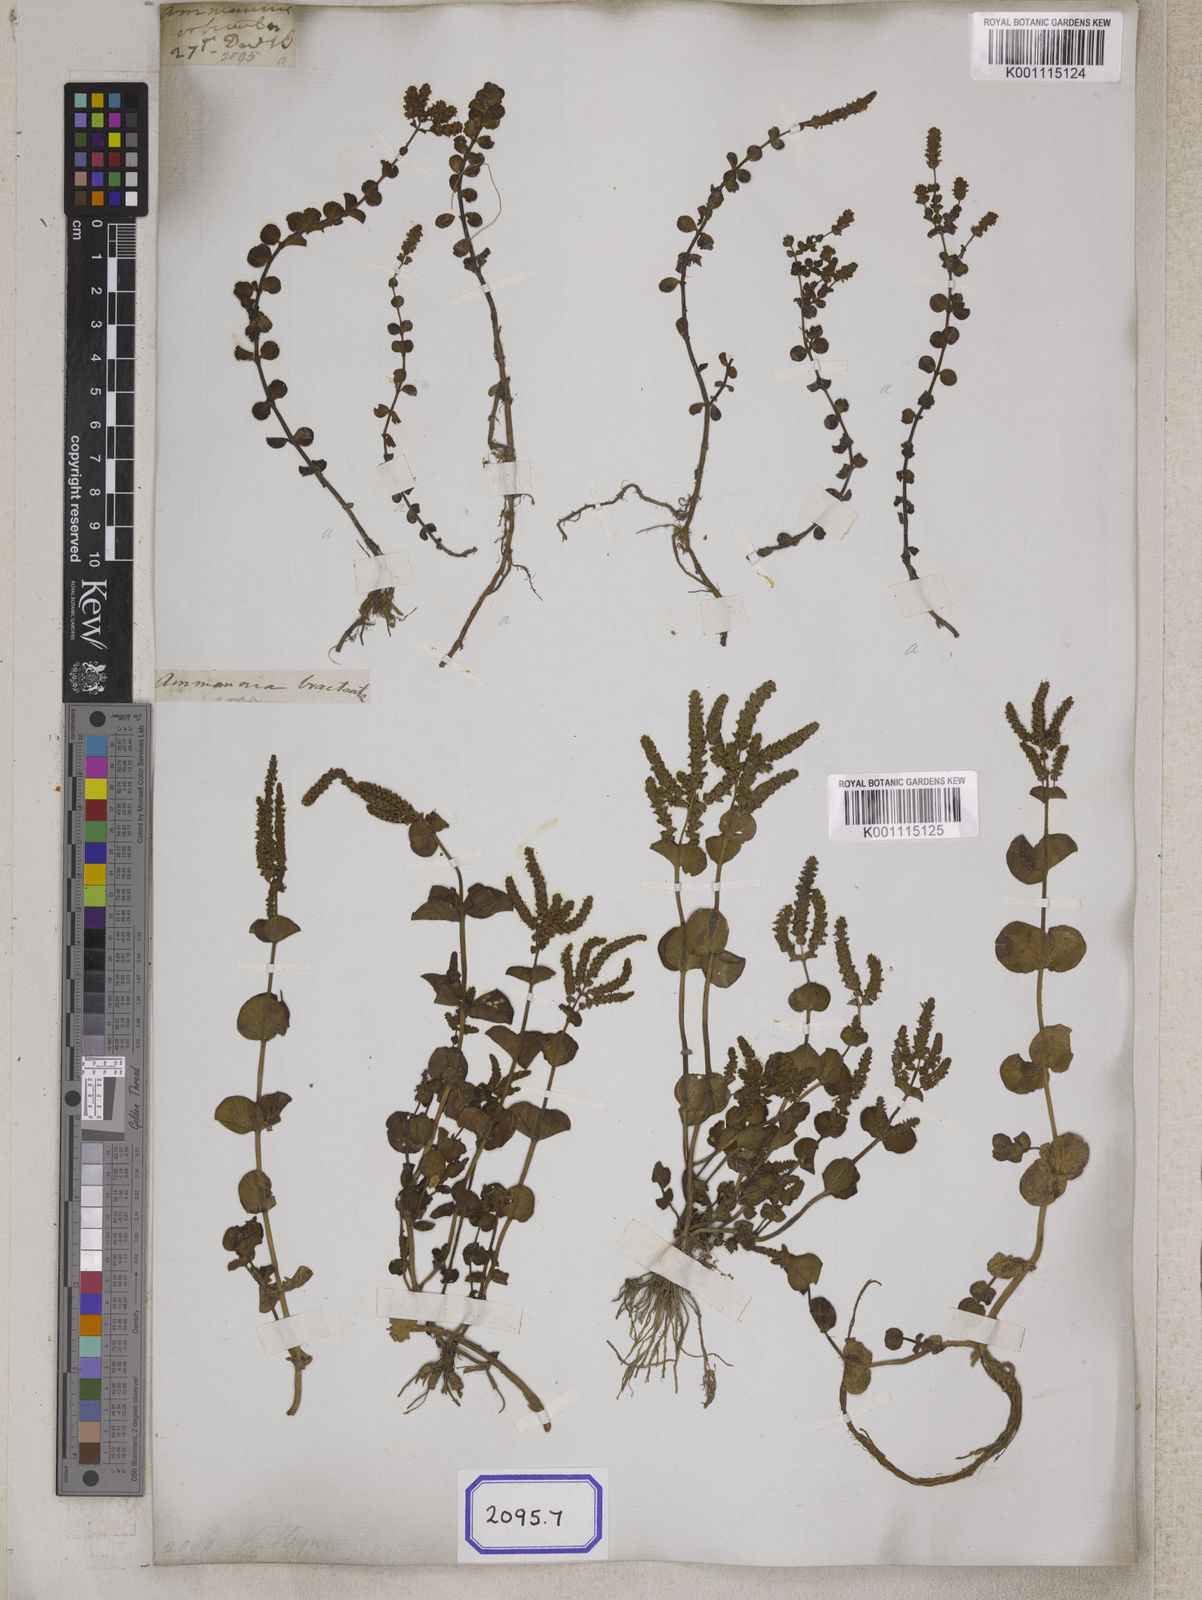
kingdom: Plantae
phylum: Tracheophyta
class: Magnoliopsida
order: Myrtales
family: Lythraceae
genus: Ammannia
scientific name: Ammannia
